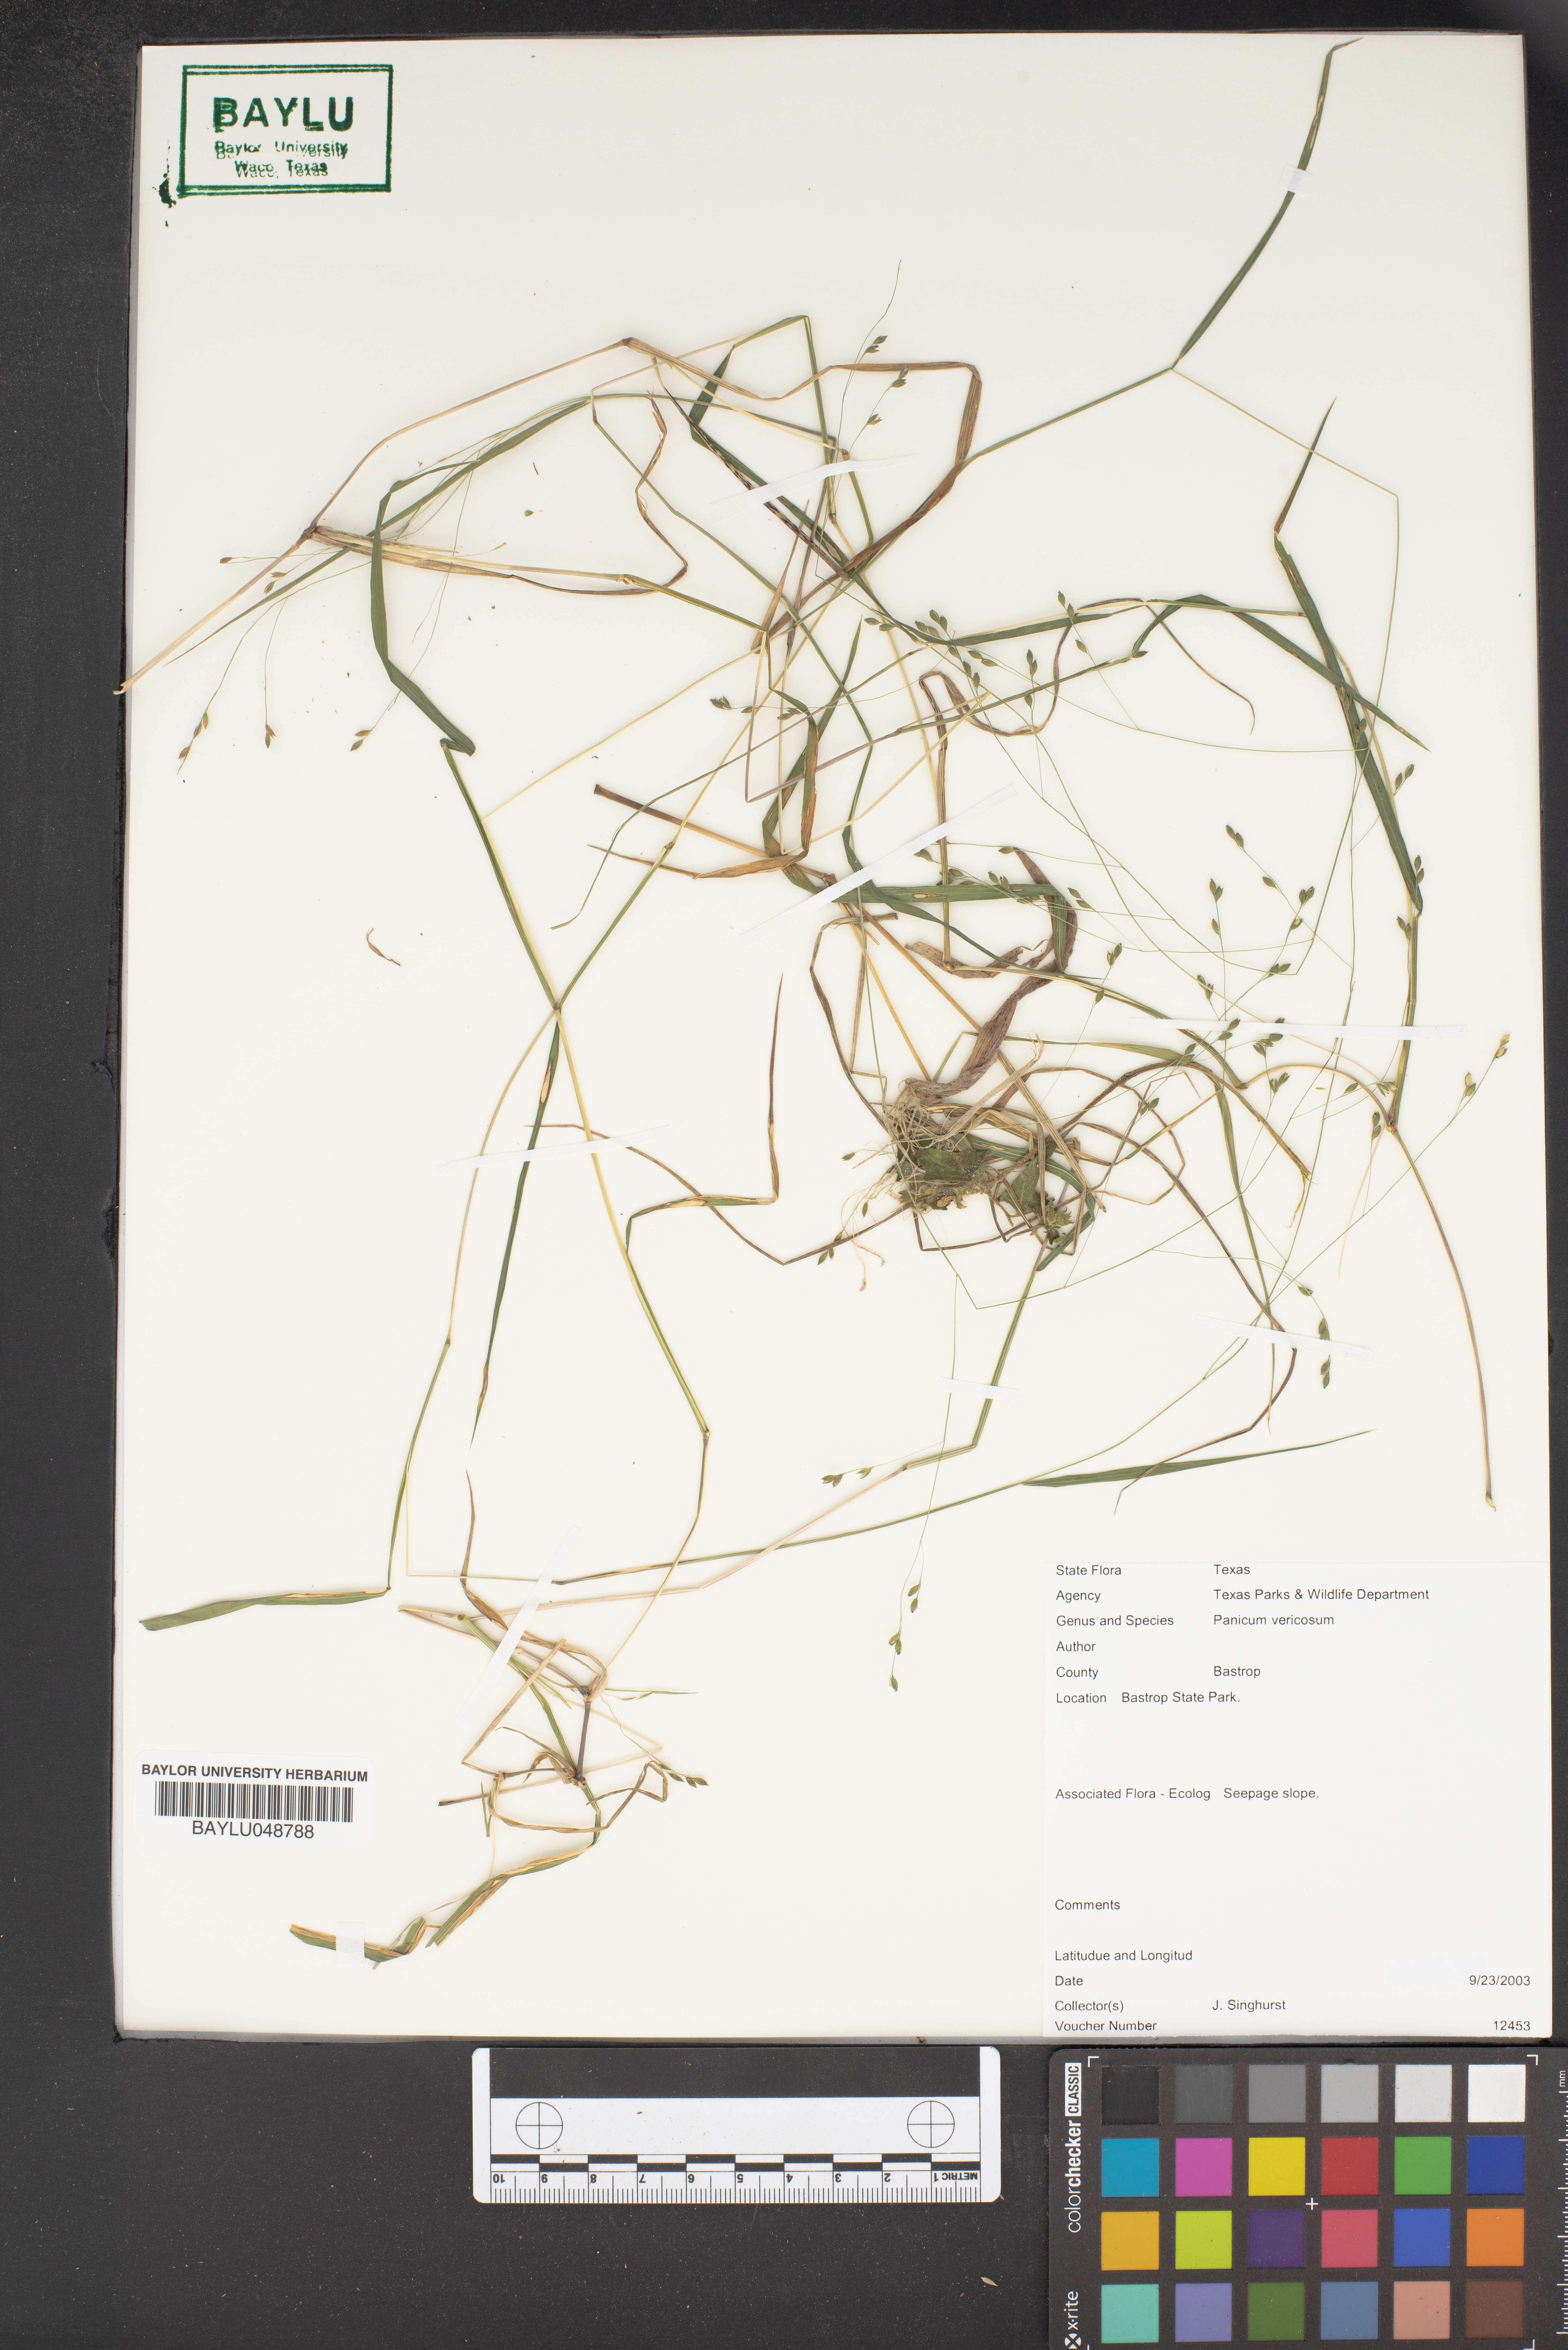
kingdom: Plantae
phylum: Tracheophyta
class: Liliopsida
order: Poales
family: Poaceae
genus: Panicum
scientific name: Panicum
